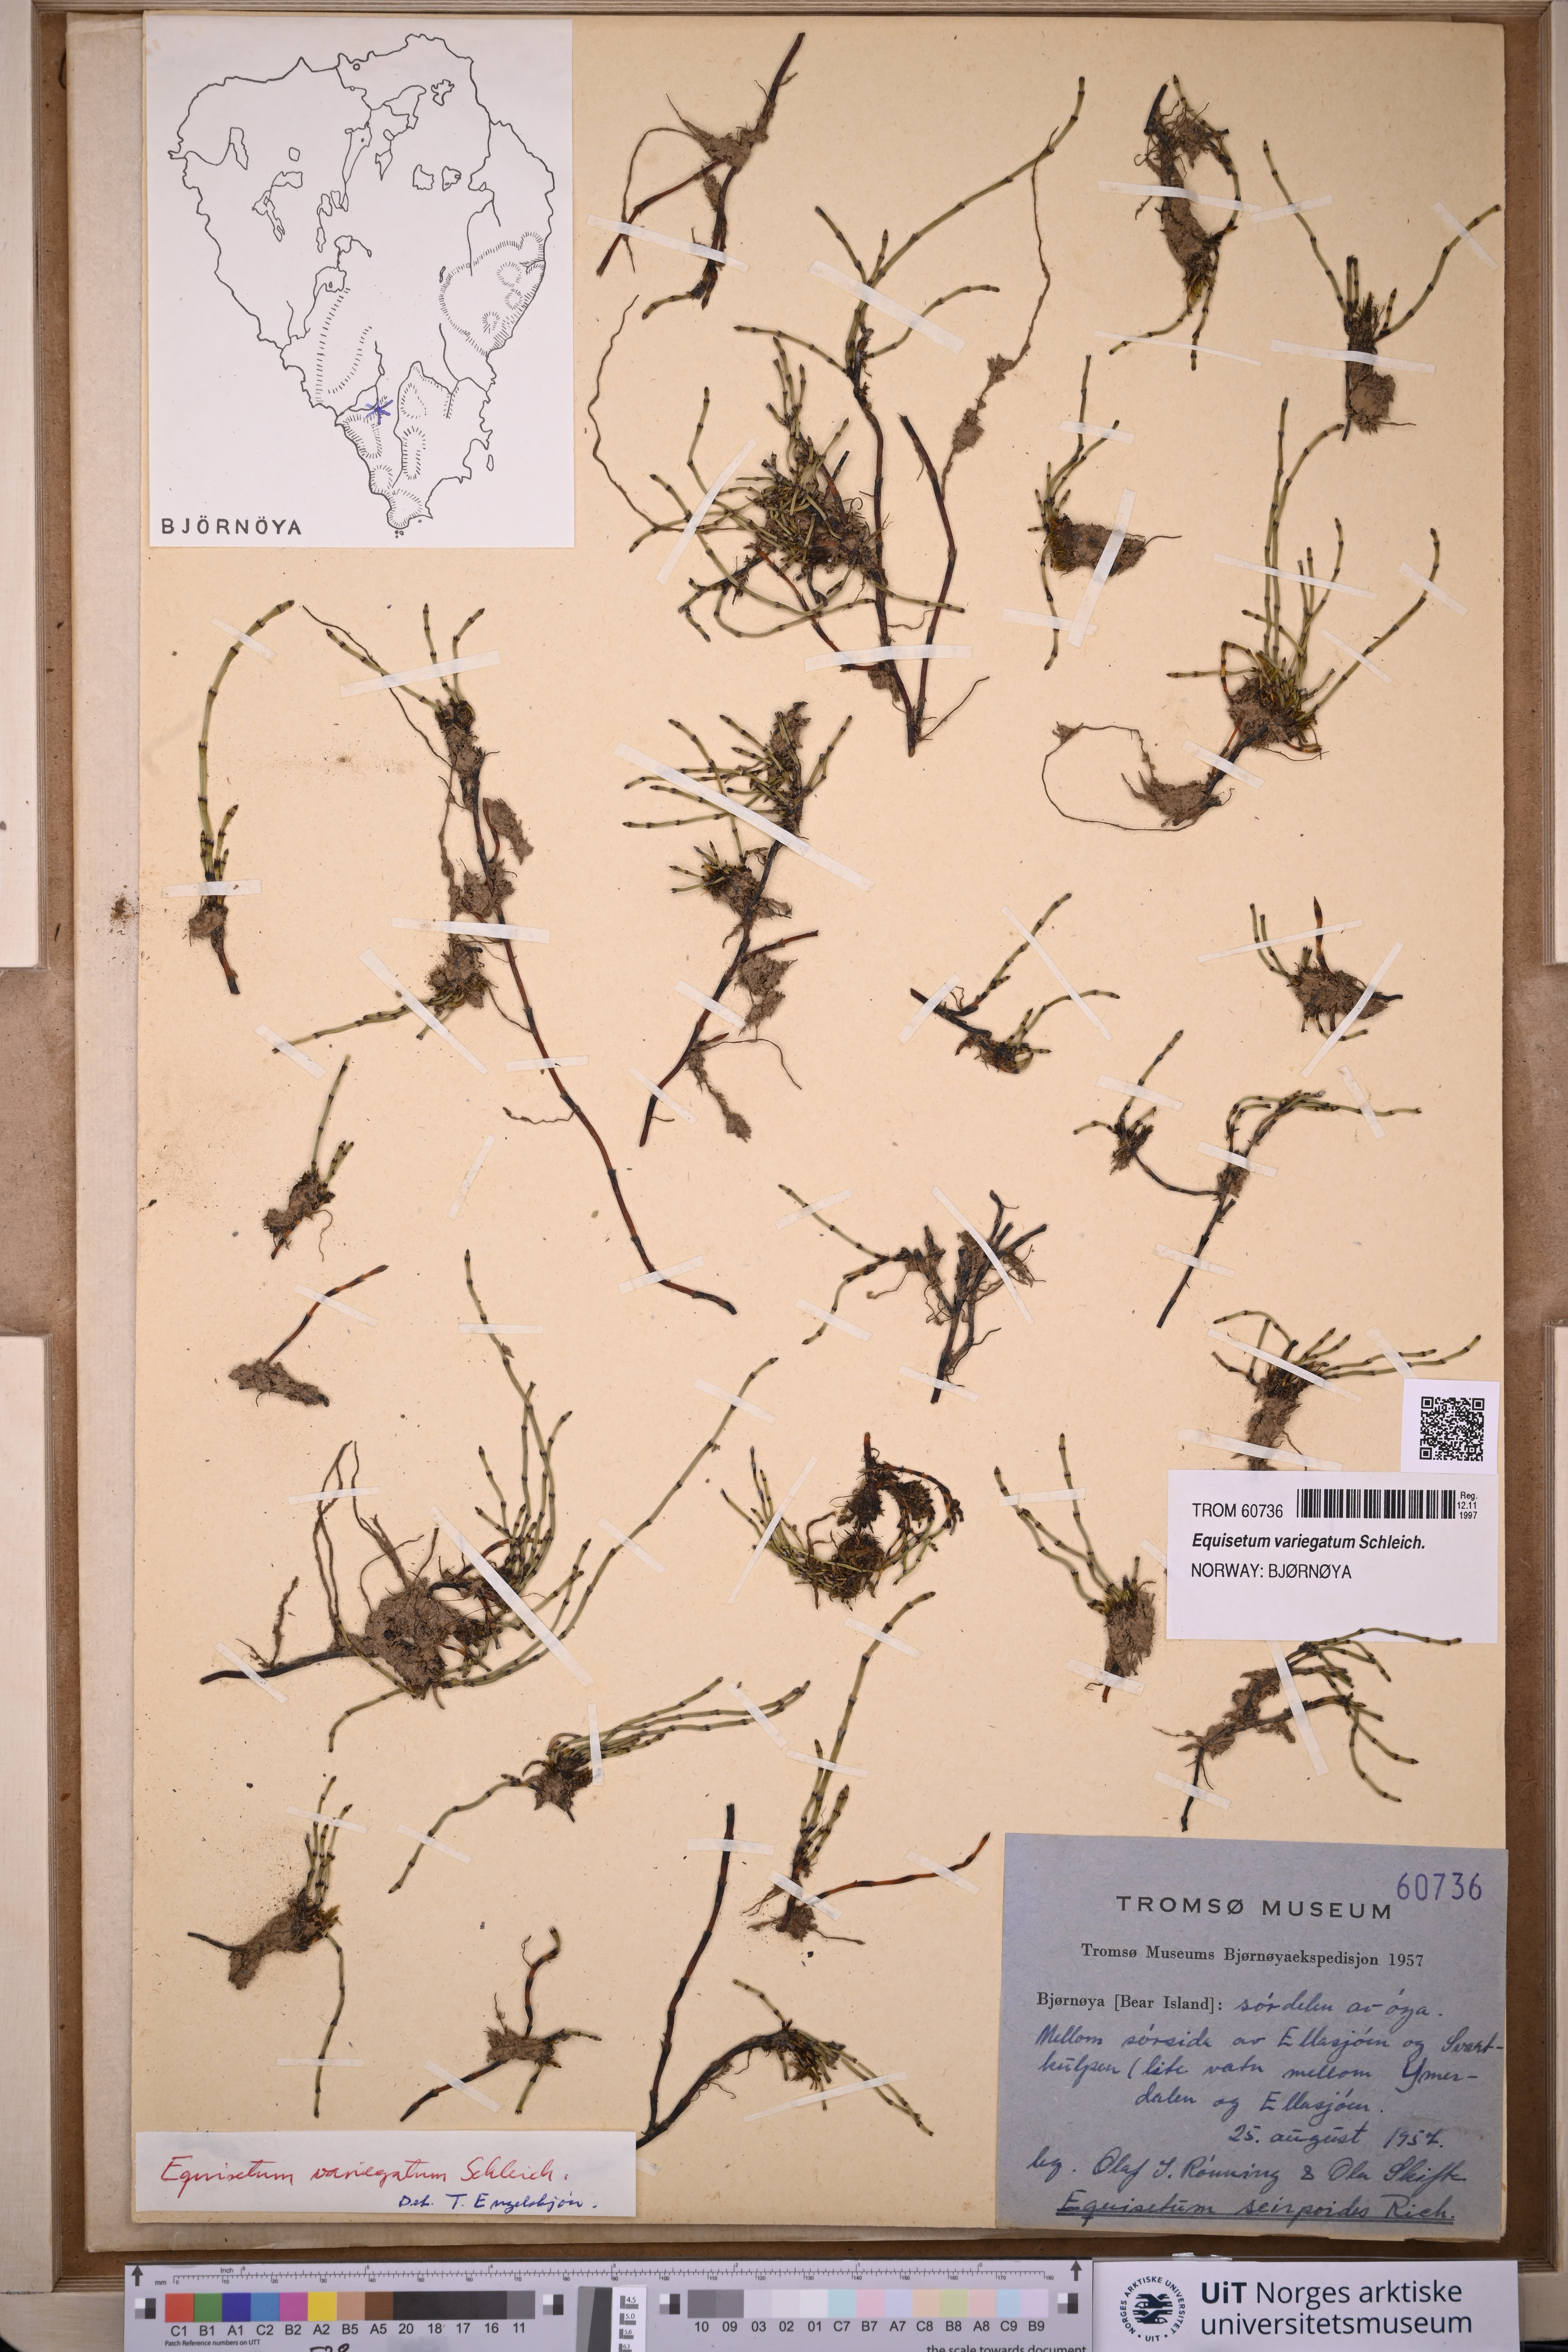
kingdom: Plantae
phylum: Tracheophyta
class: Polypodiopsida
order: Equisetales
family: Equisetaceae
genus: Equisetum
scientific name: Equisetum variegatum
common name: Variegated horsetail
